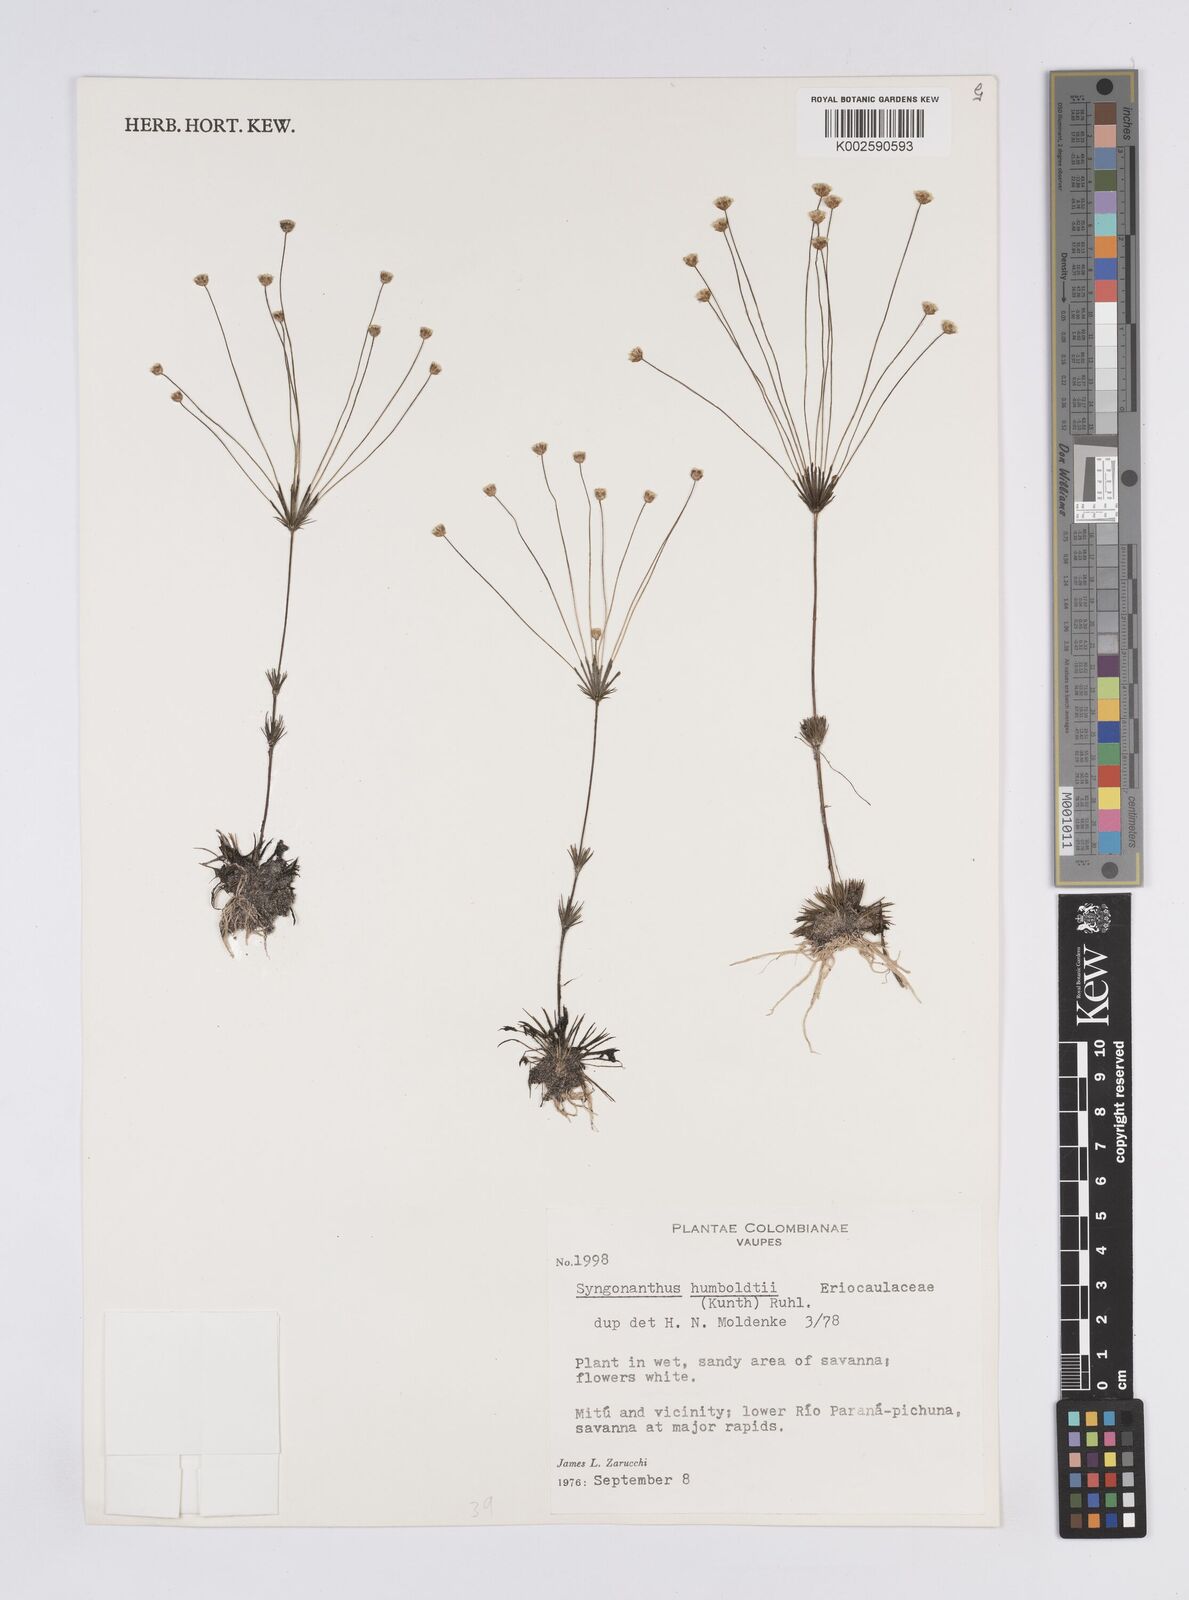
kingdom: Plantae
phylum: Tracheophyta
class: Liliopsida
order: Poales
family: Eriocaulaceae
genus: Syngonanthus
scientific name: Syngonanthus humboldtii
